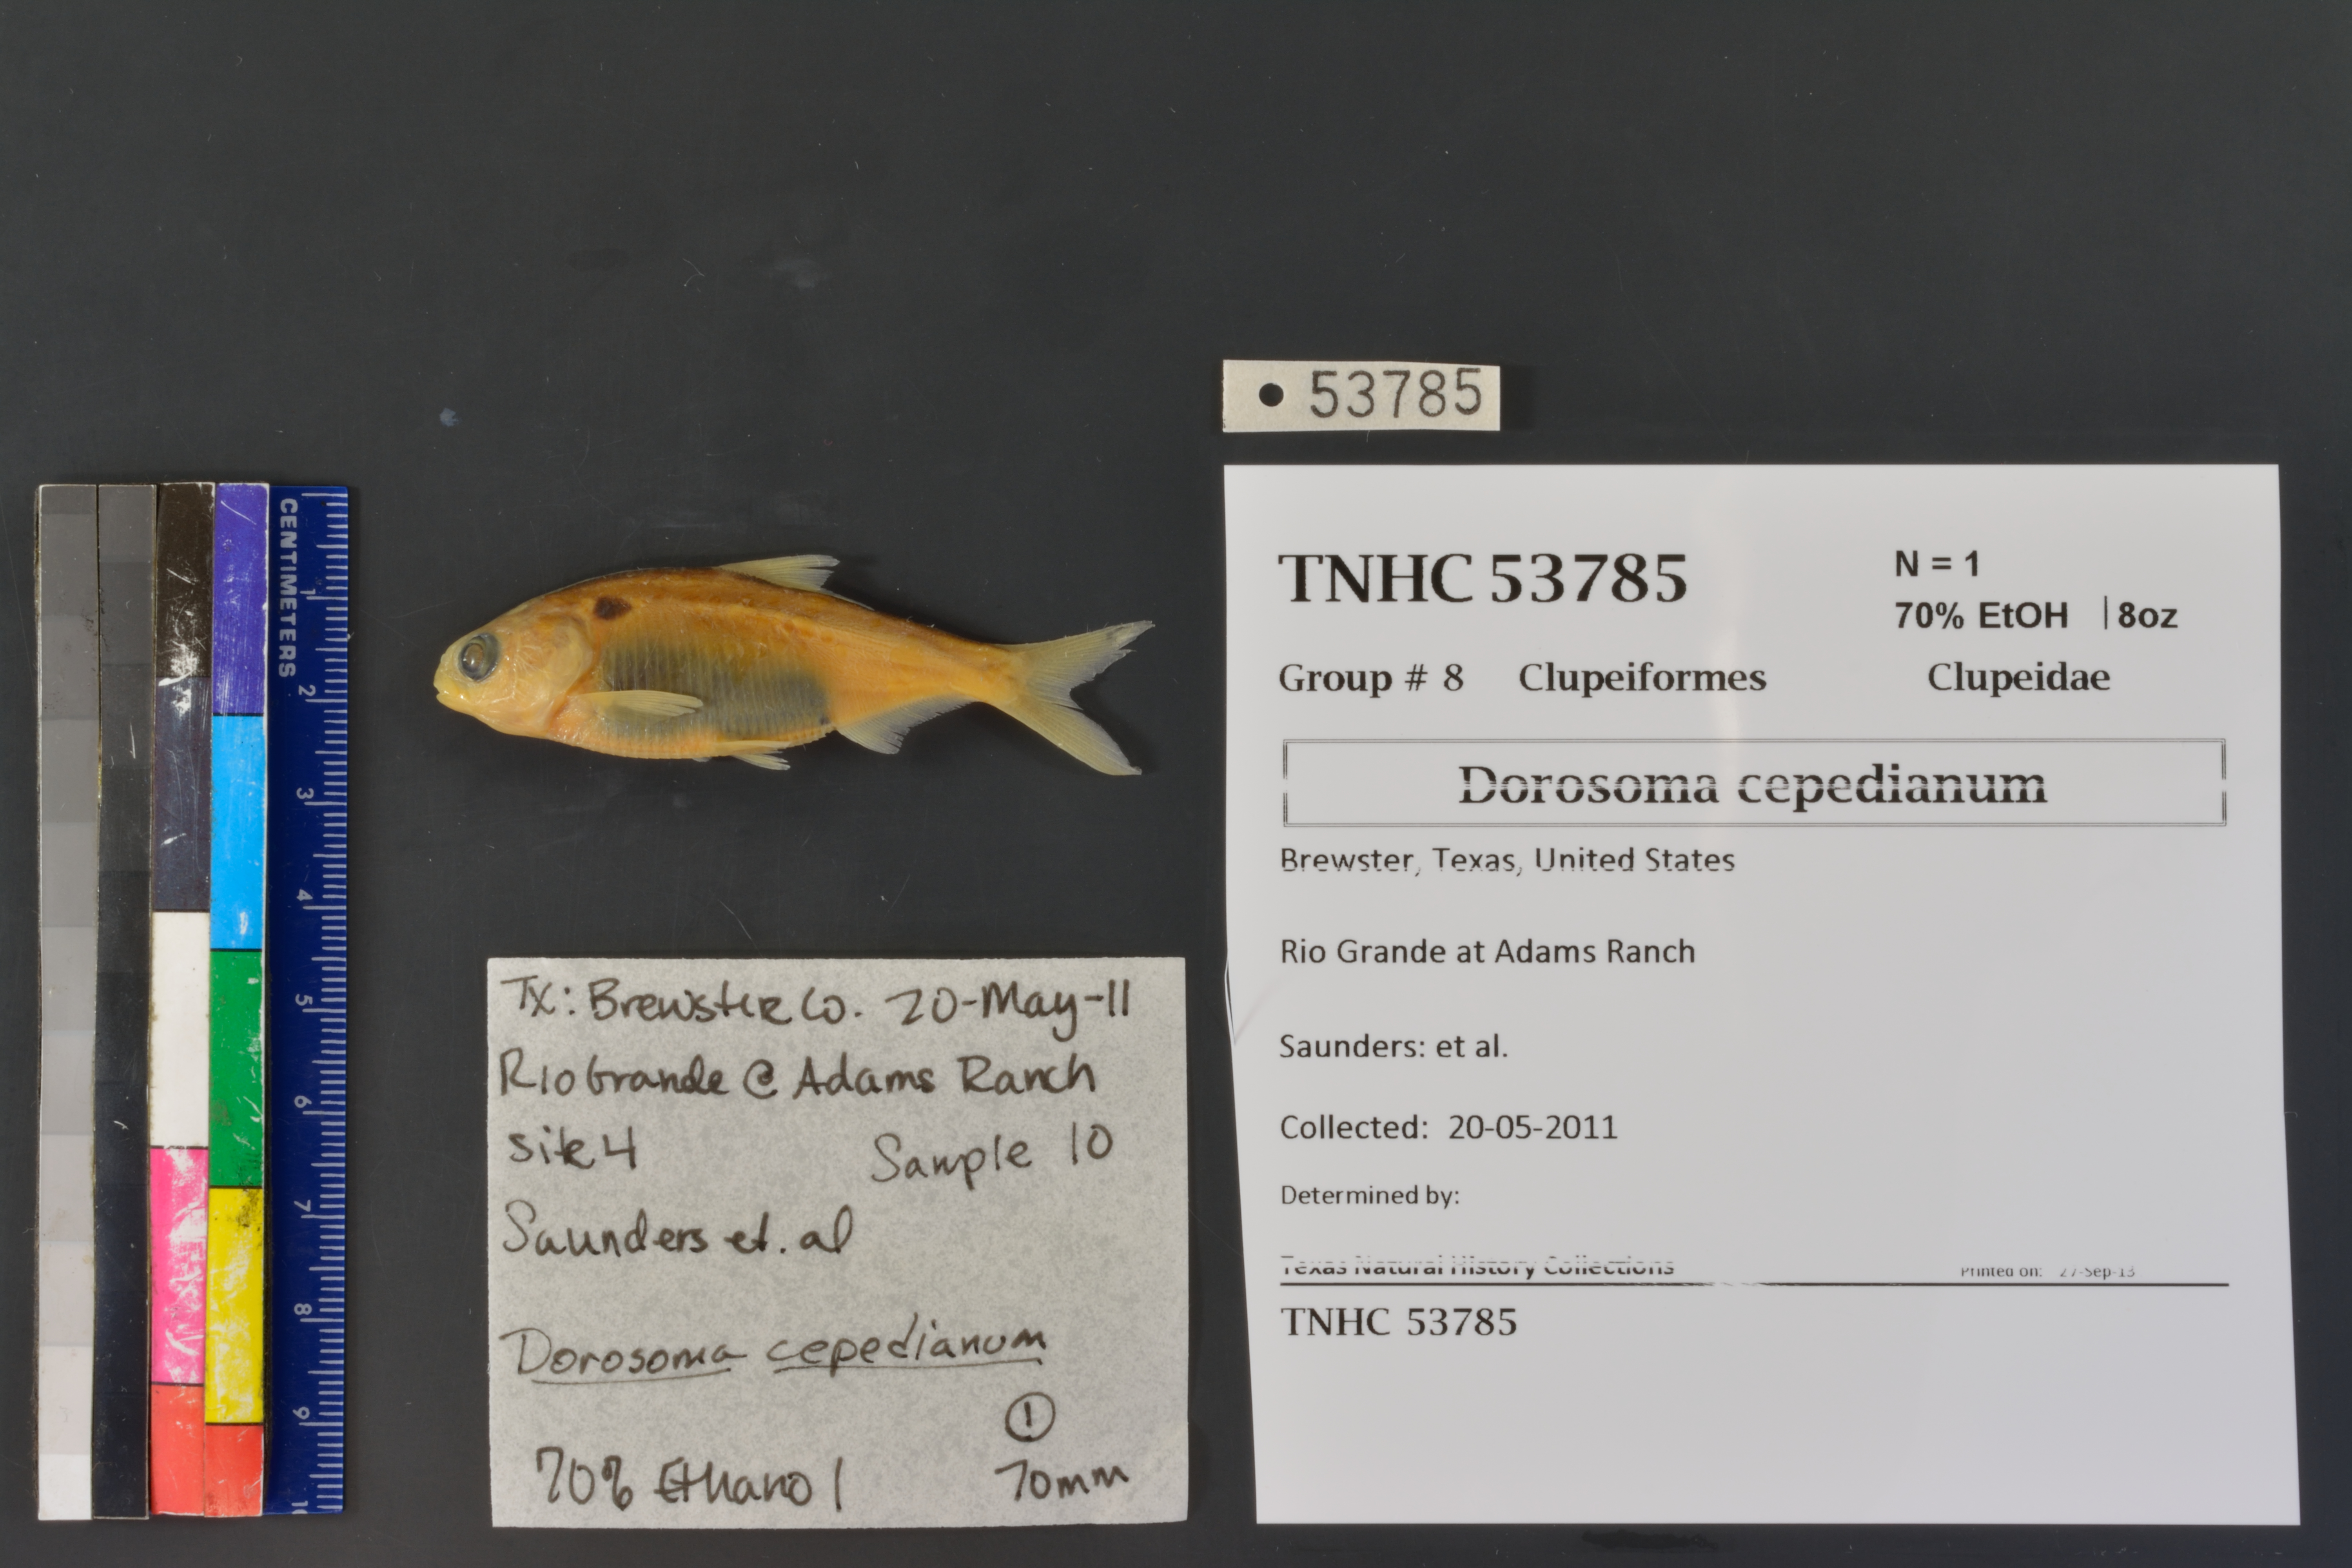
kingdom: Animalia
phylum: Chordata
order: Clupeiformes
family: Clupeidae
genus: Dorosoma
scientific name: Dorosoma cepedianum
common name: Gizzard shad
